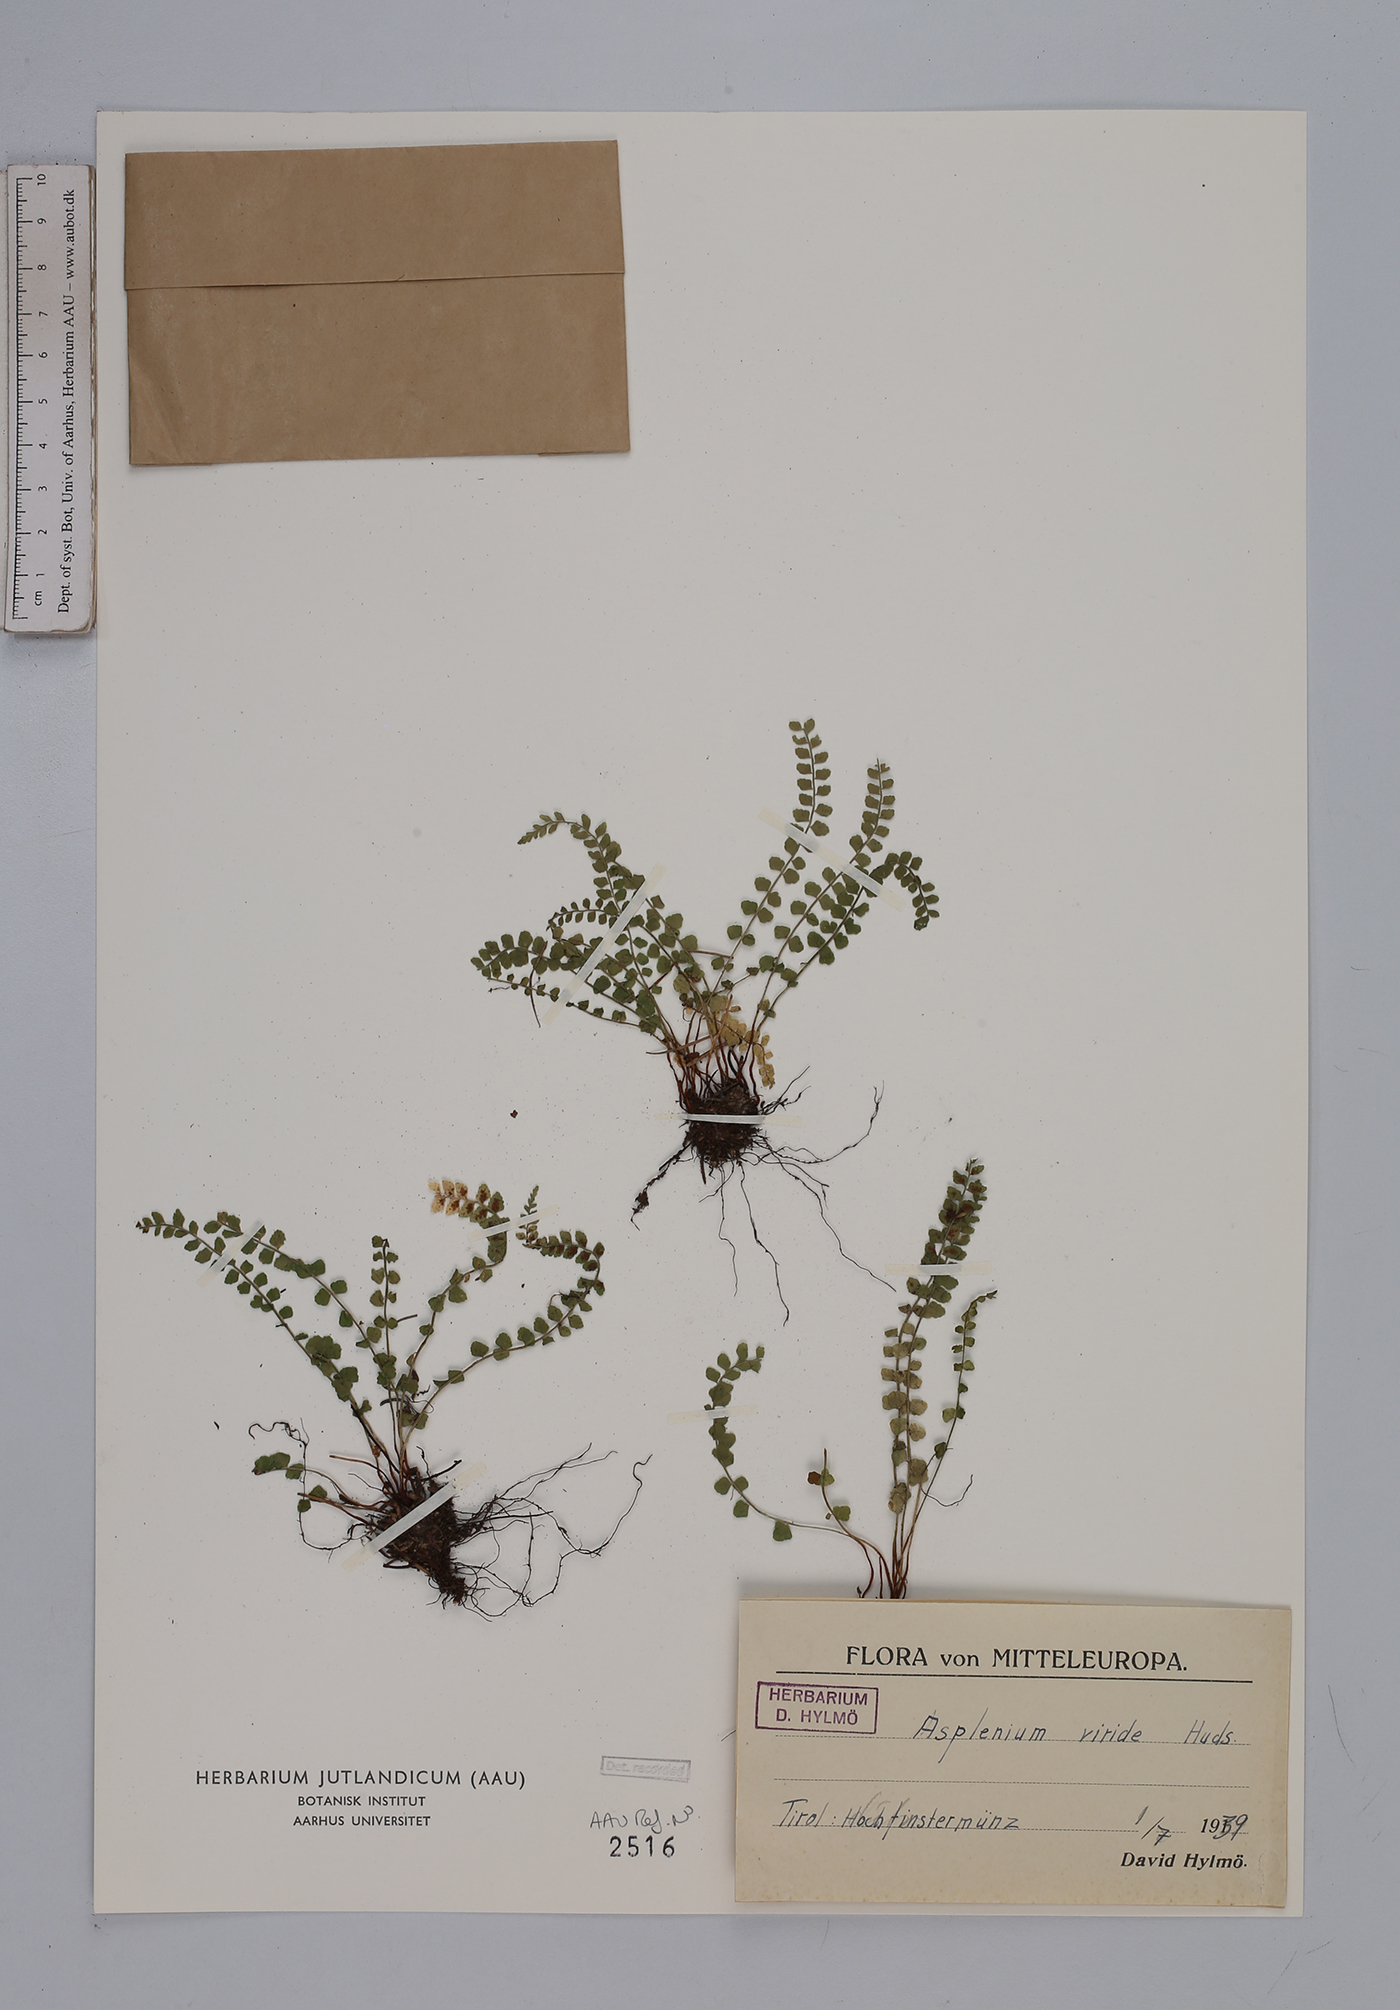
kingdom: Plantae
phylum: Tracheophyta
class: Polypodiopsida
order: Polypodiales
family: Aspleniaceae
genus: Asplenium
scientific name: Asplenium viride
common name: Green spleenwort
